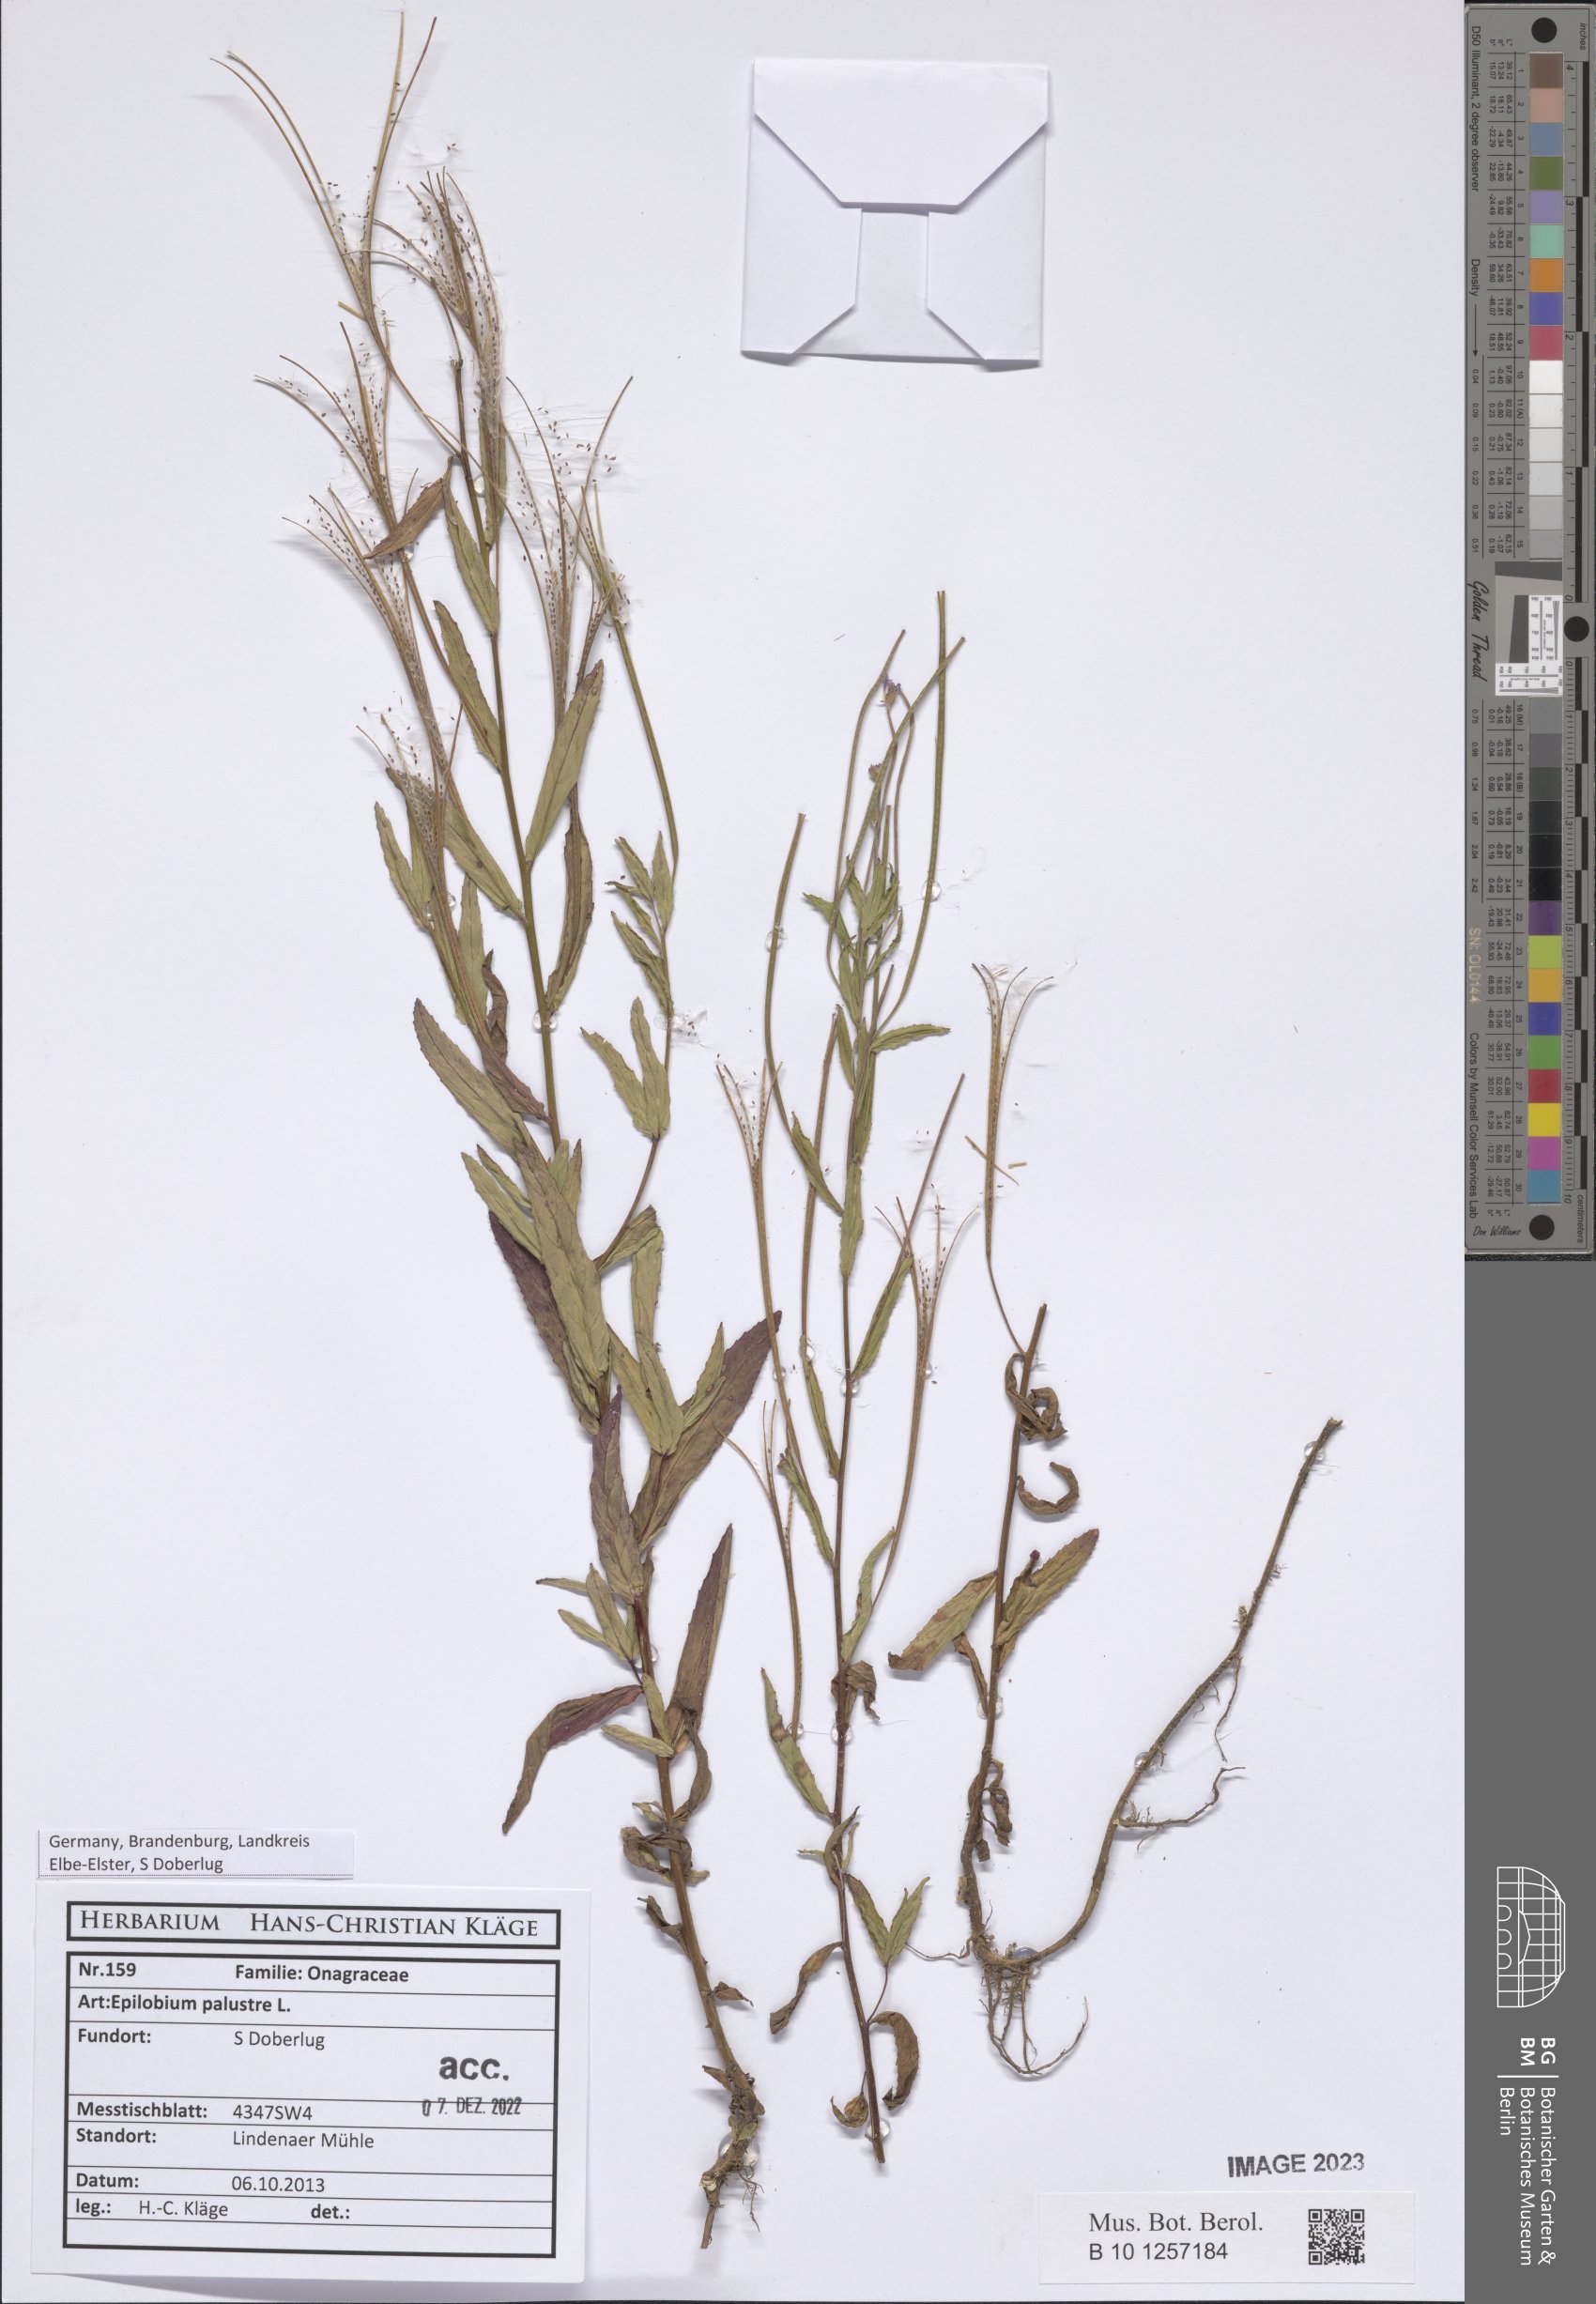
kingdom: Plantae
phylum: Tracheophyta
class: Magnoliopsida
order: Myrtales
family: Onagraceae
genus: Epilobium
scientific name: Epilobium palustre
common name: Marsh willowherb
